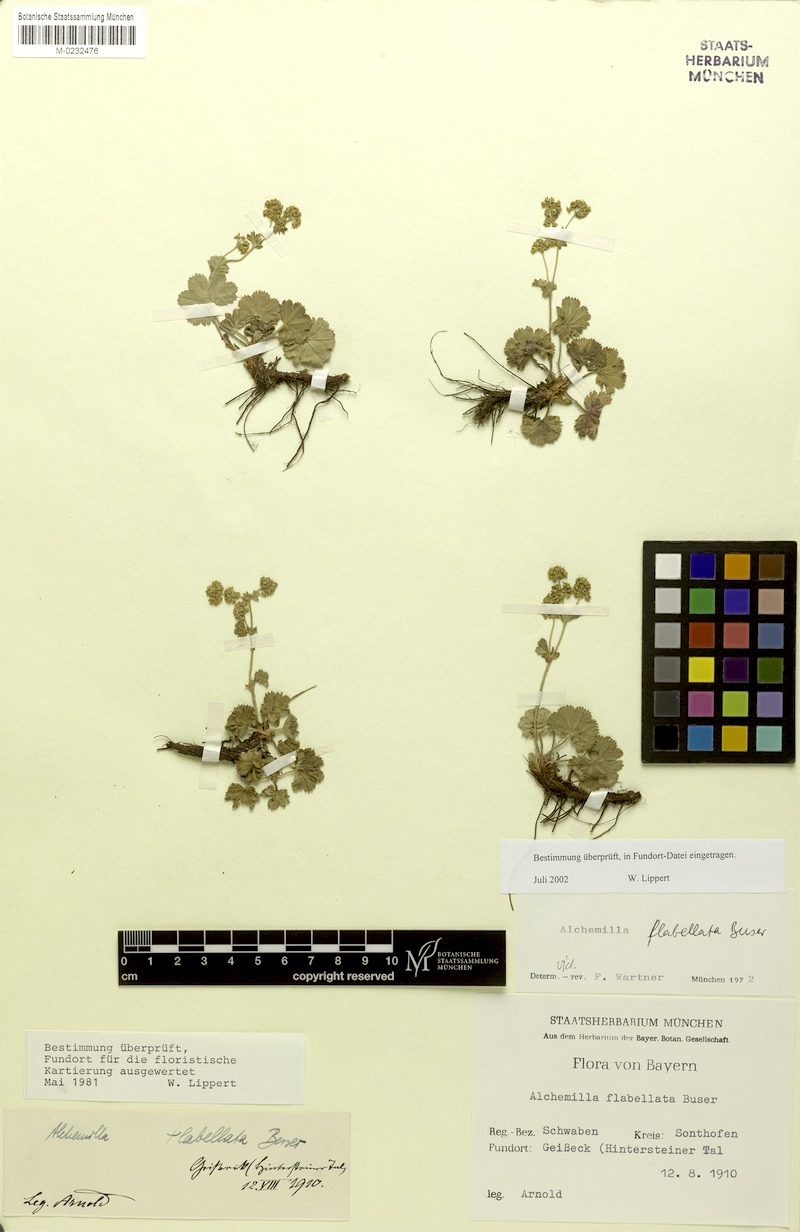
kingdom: Plantae
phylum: Tracheophyta
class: Magnoliopsida
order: Rosales
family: Rosaceae
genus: Alchemilla
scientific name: Alchemilla flabellata
